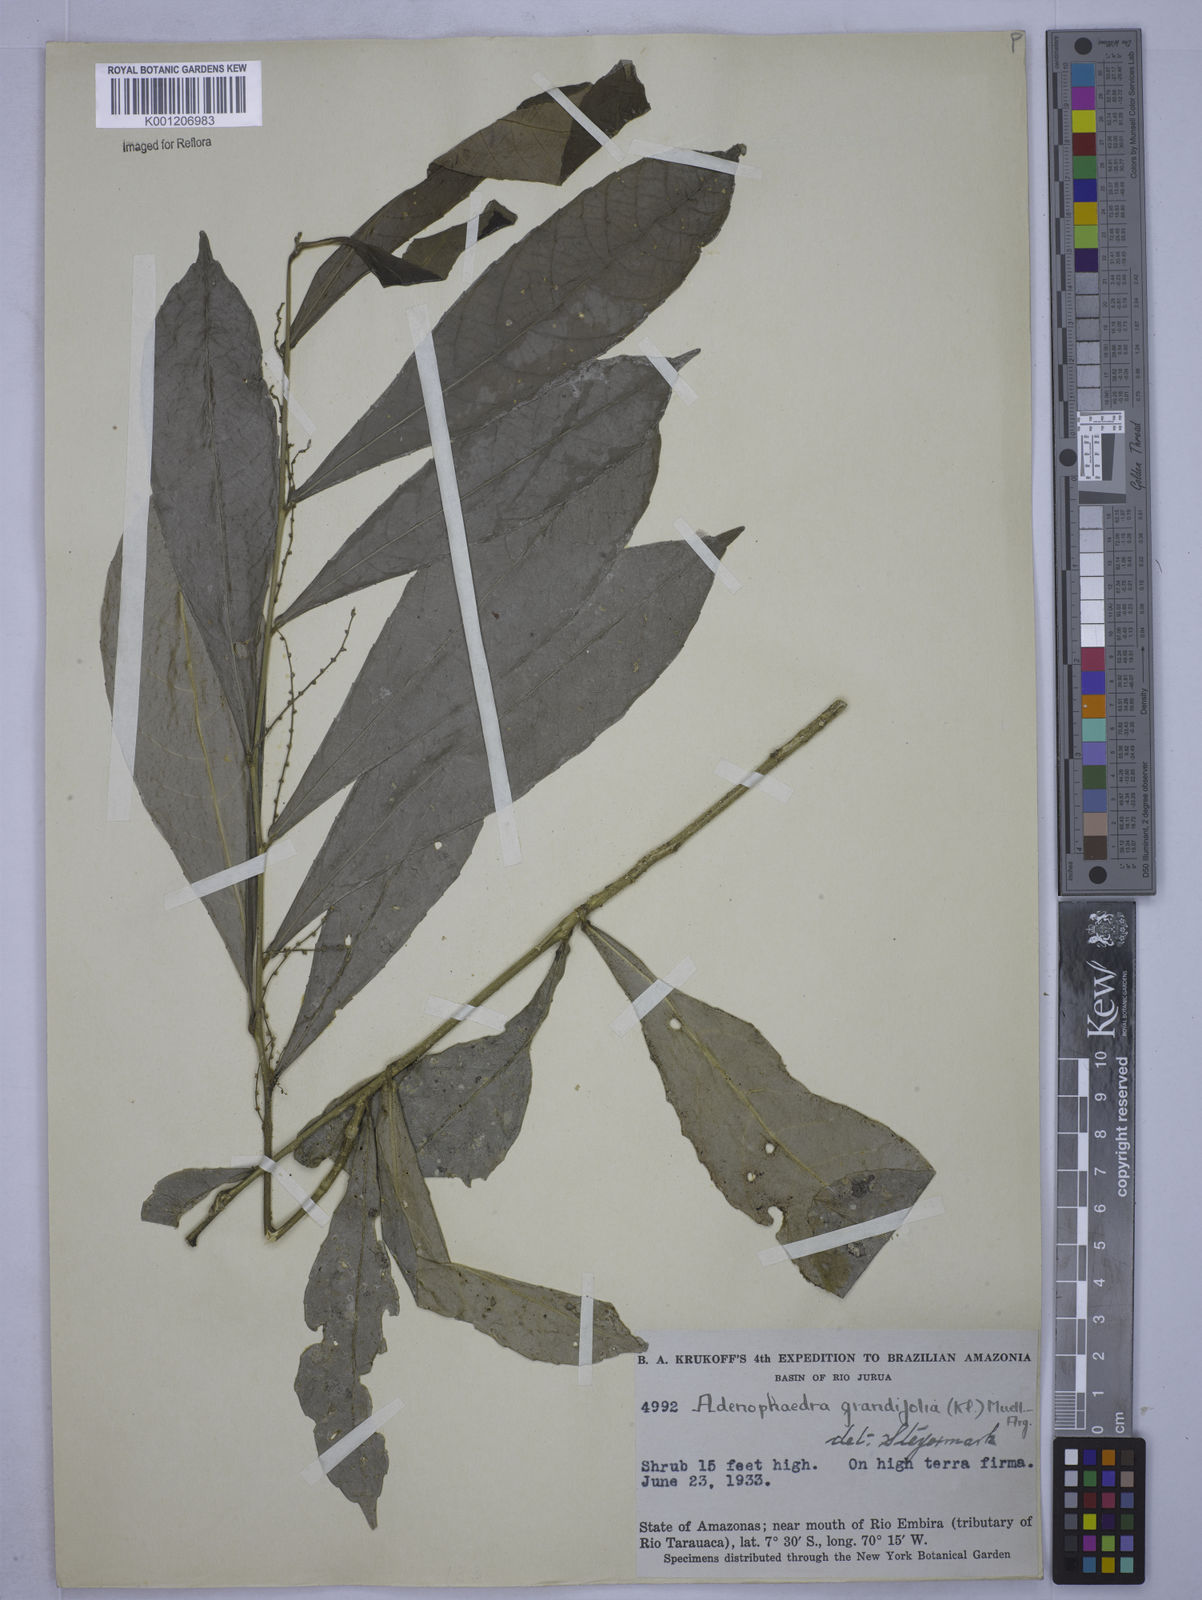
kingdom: Plantae
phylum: Tracheophyta
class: Magnoliopsida
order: Malpighiales
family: Euphorbiaceae
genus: Adenophaedra
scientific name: Adenophaedra
